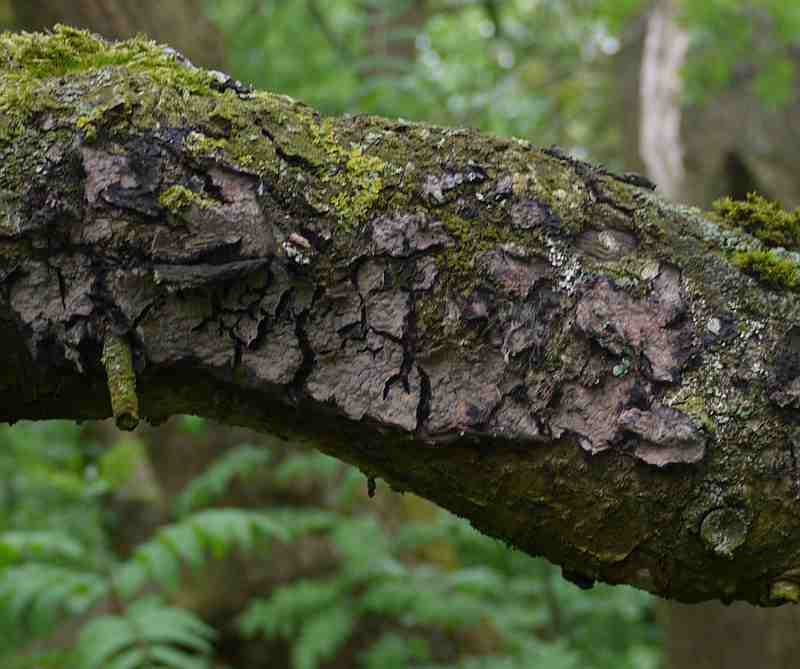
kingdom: Fungi
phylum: Basidiomycota
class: Agaricomycetes
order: Russulales
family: Peniophoraceae
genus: Peniophora
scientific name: Peniophora quercina
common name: ege-voksskind
